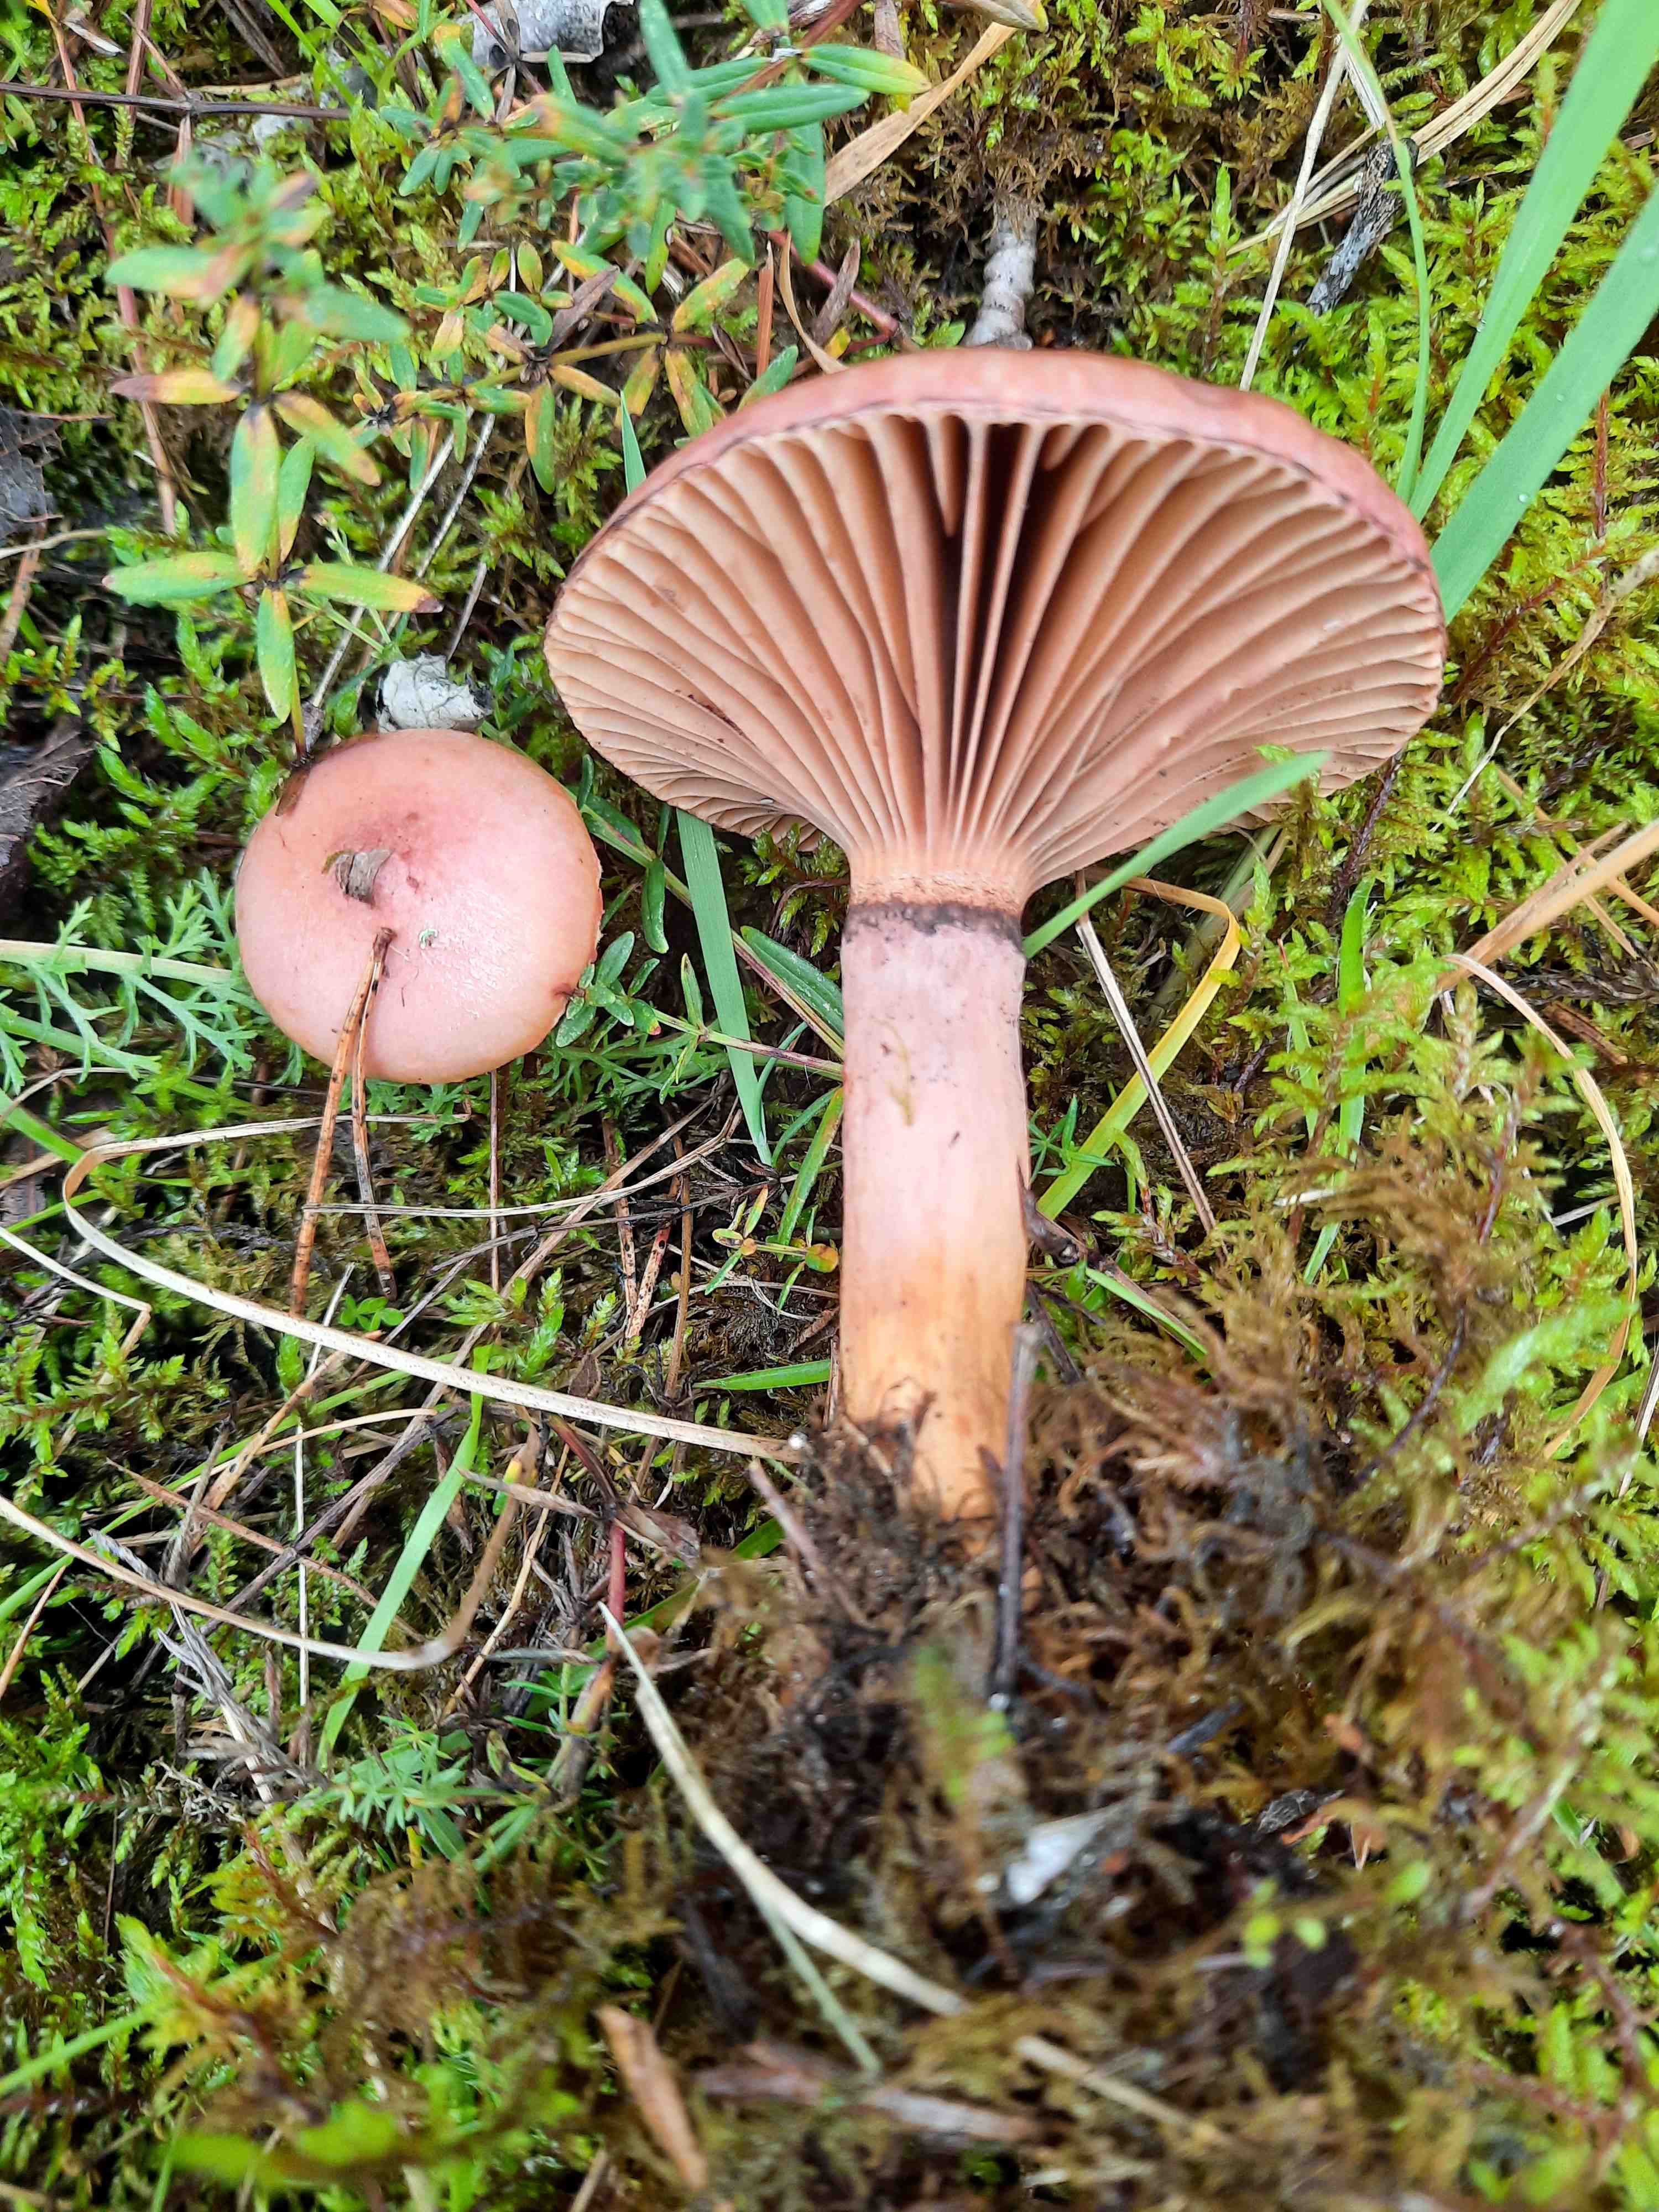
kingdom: Fungi
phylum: Basidiomycota
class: Agaricomycetes
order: Boletales
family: Gomphidiaceae
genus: Chroogomphus
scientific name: Chroogomphus rutilus
